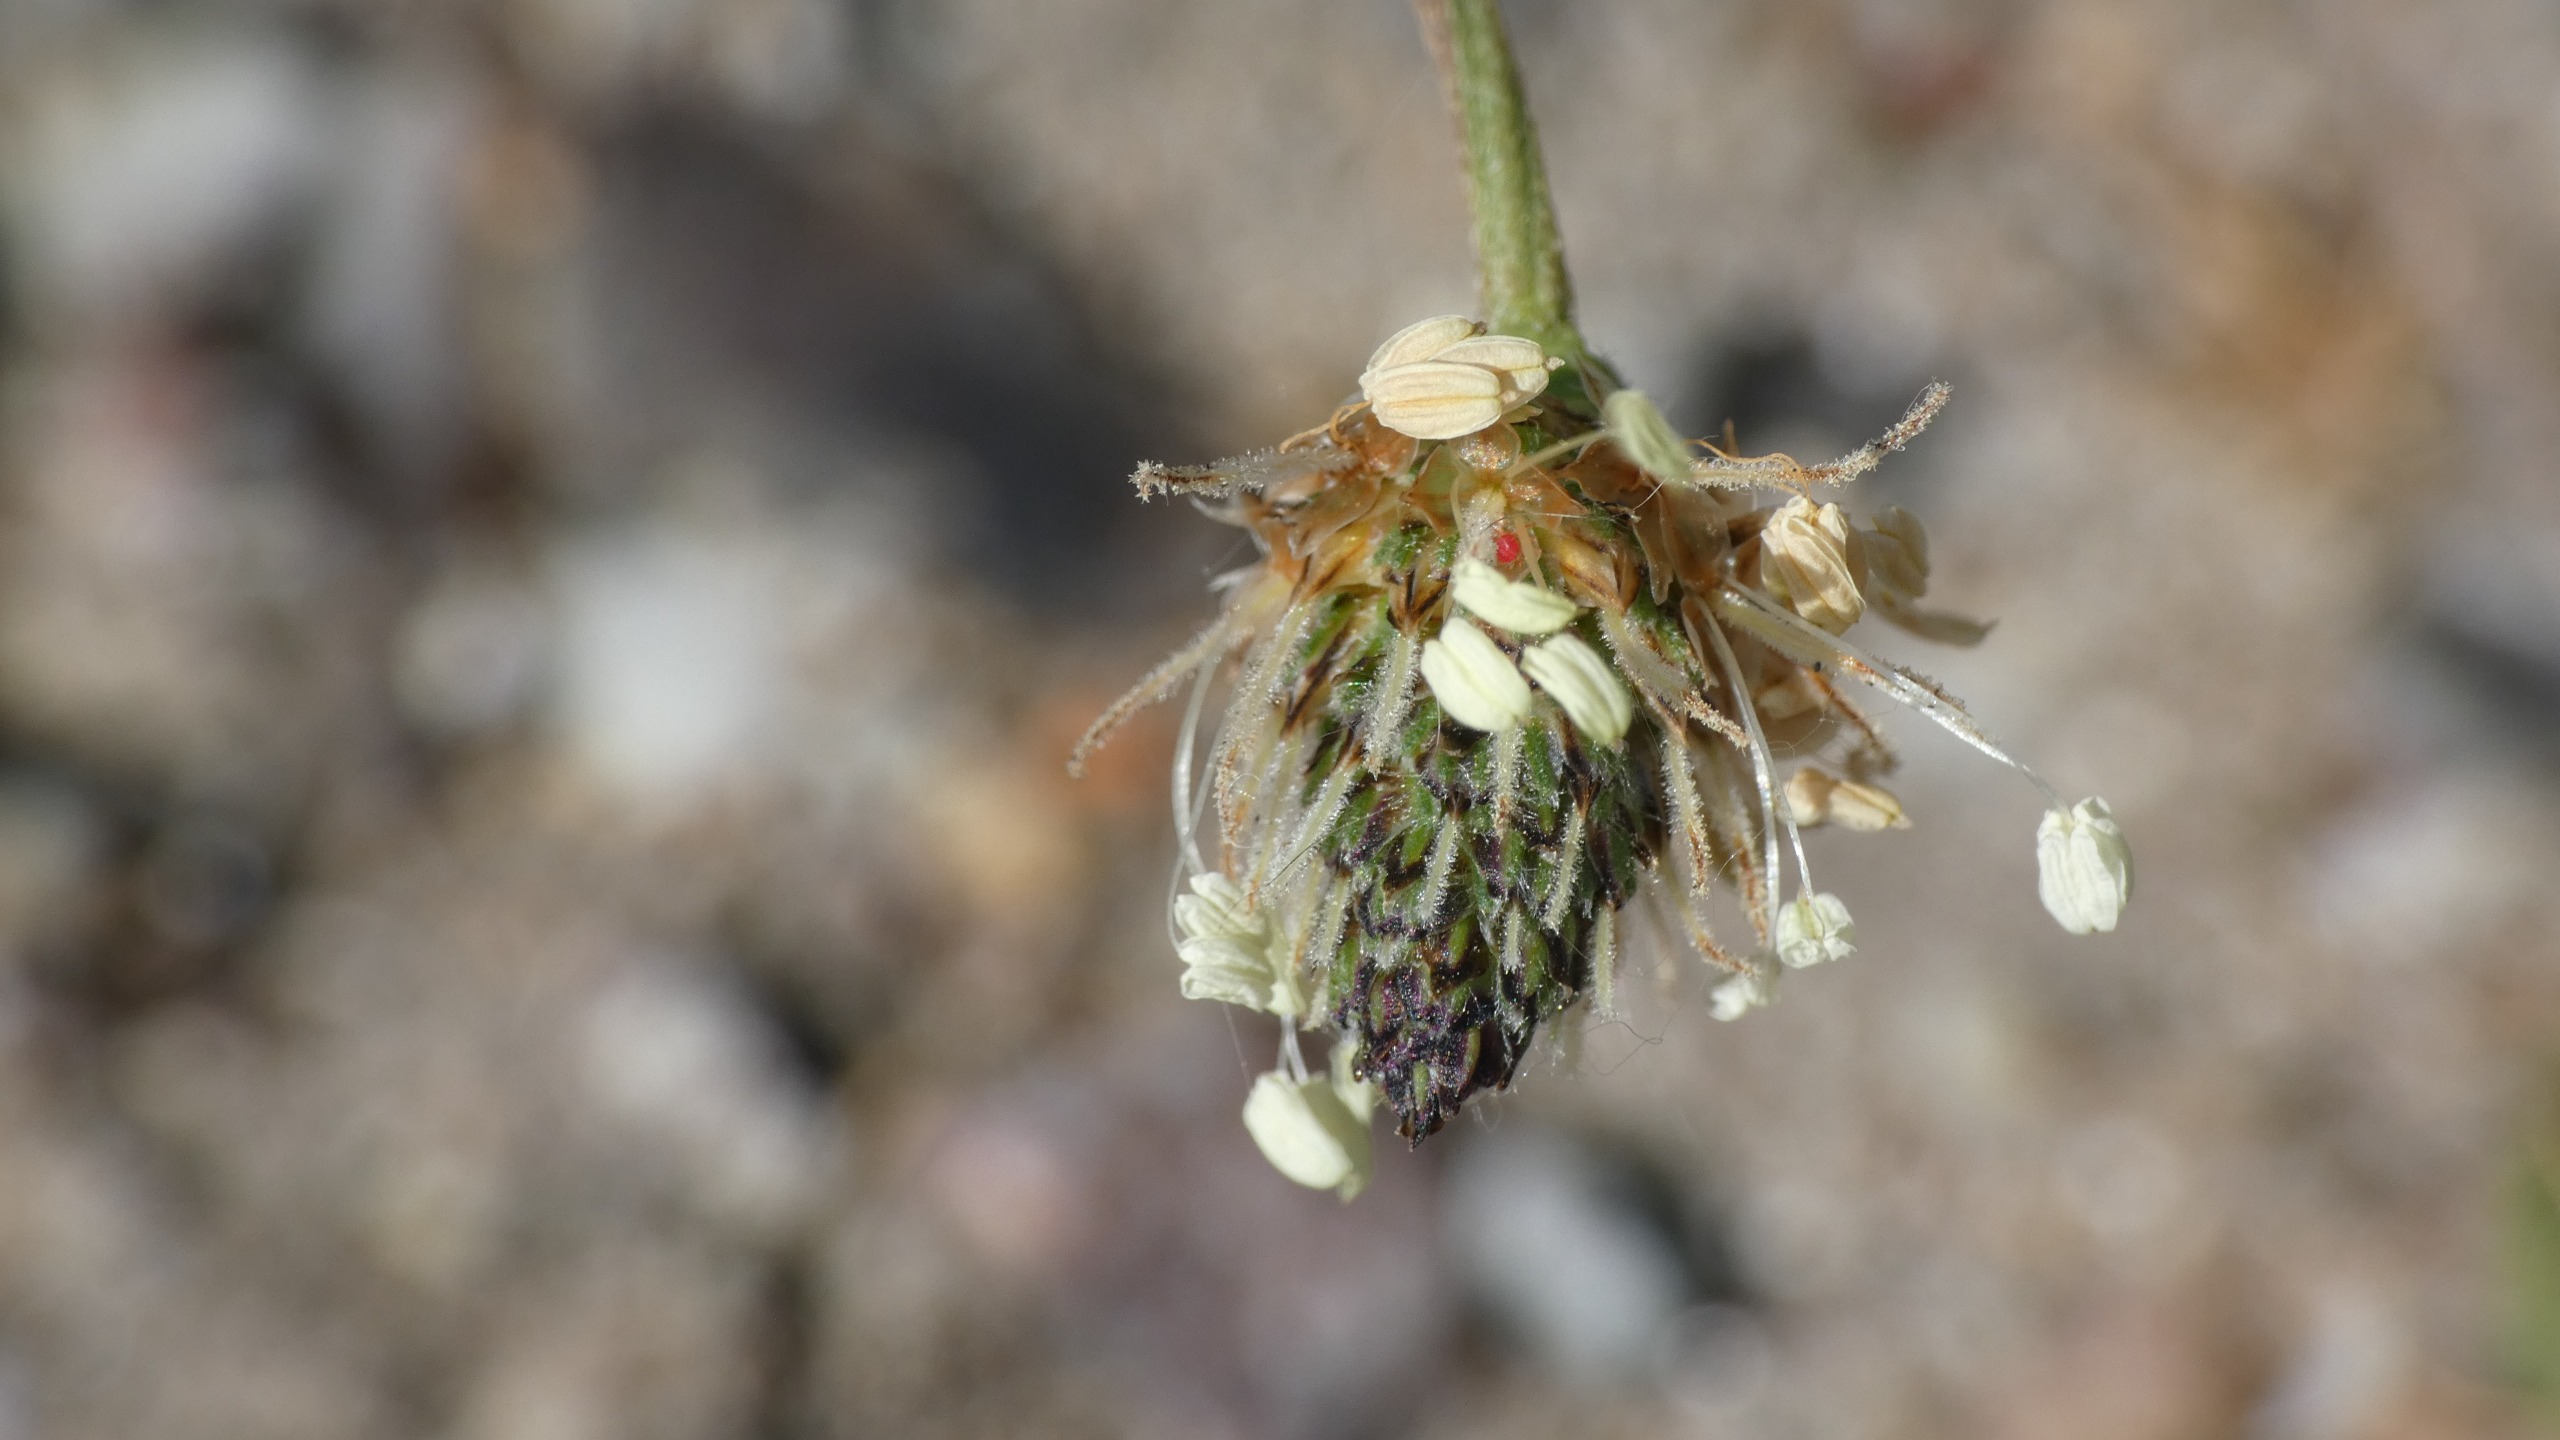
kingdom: Plantae
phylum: Tracheophyta
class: Magnoliopsida
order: Lamiales
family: Plantaginaceae
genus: Plantago
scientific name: Plantago lanceolata
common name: Lancet-vejbred
